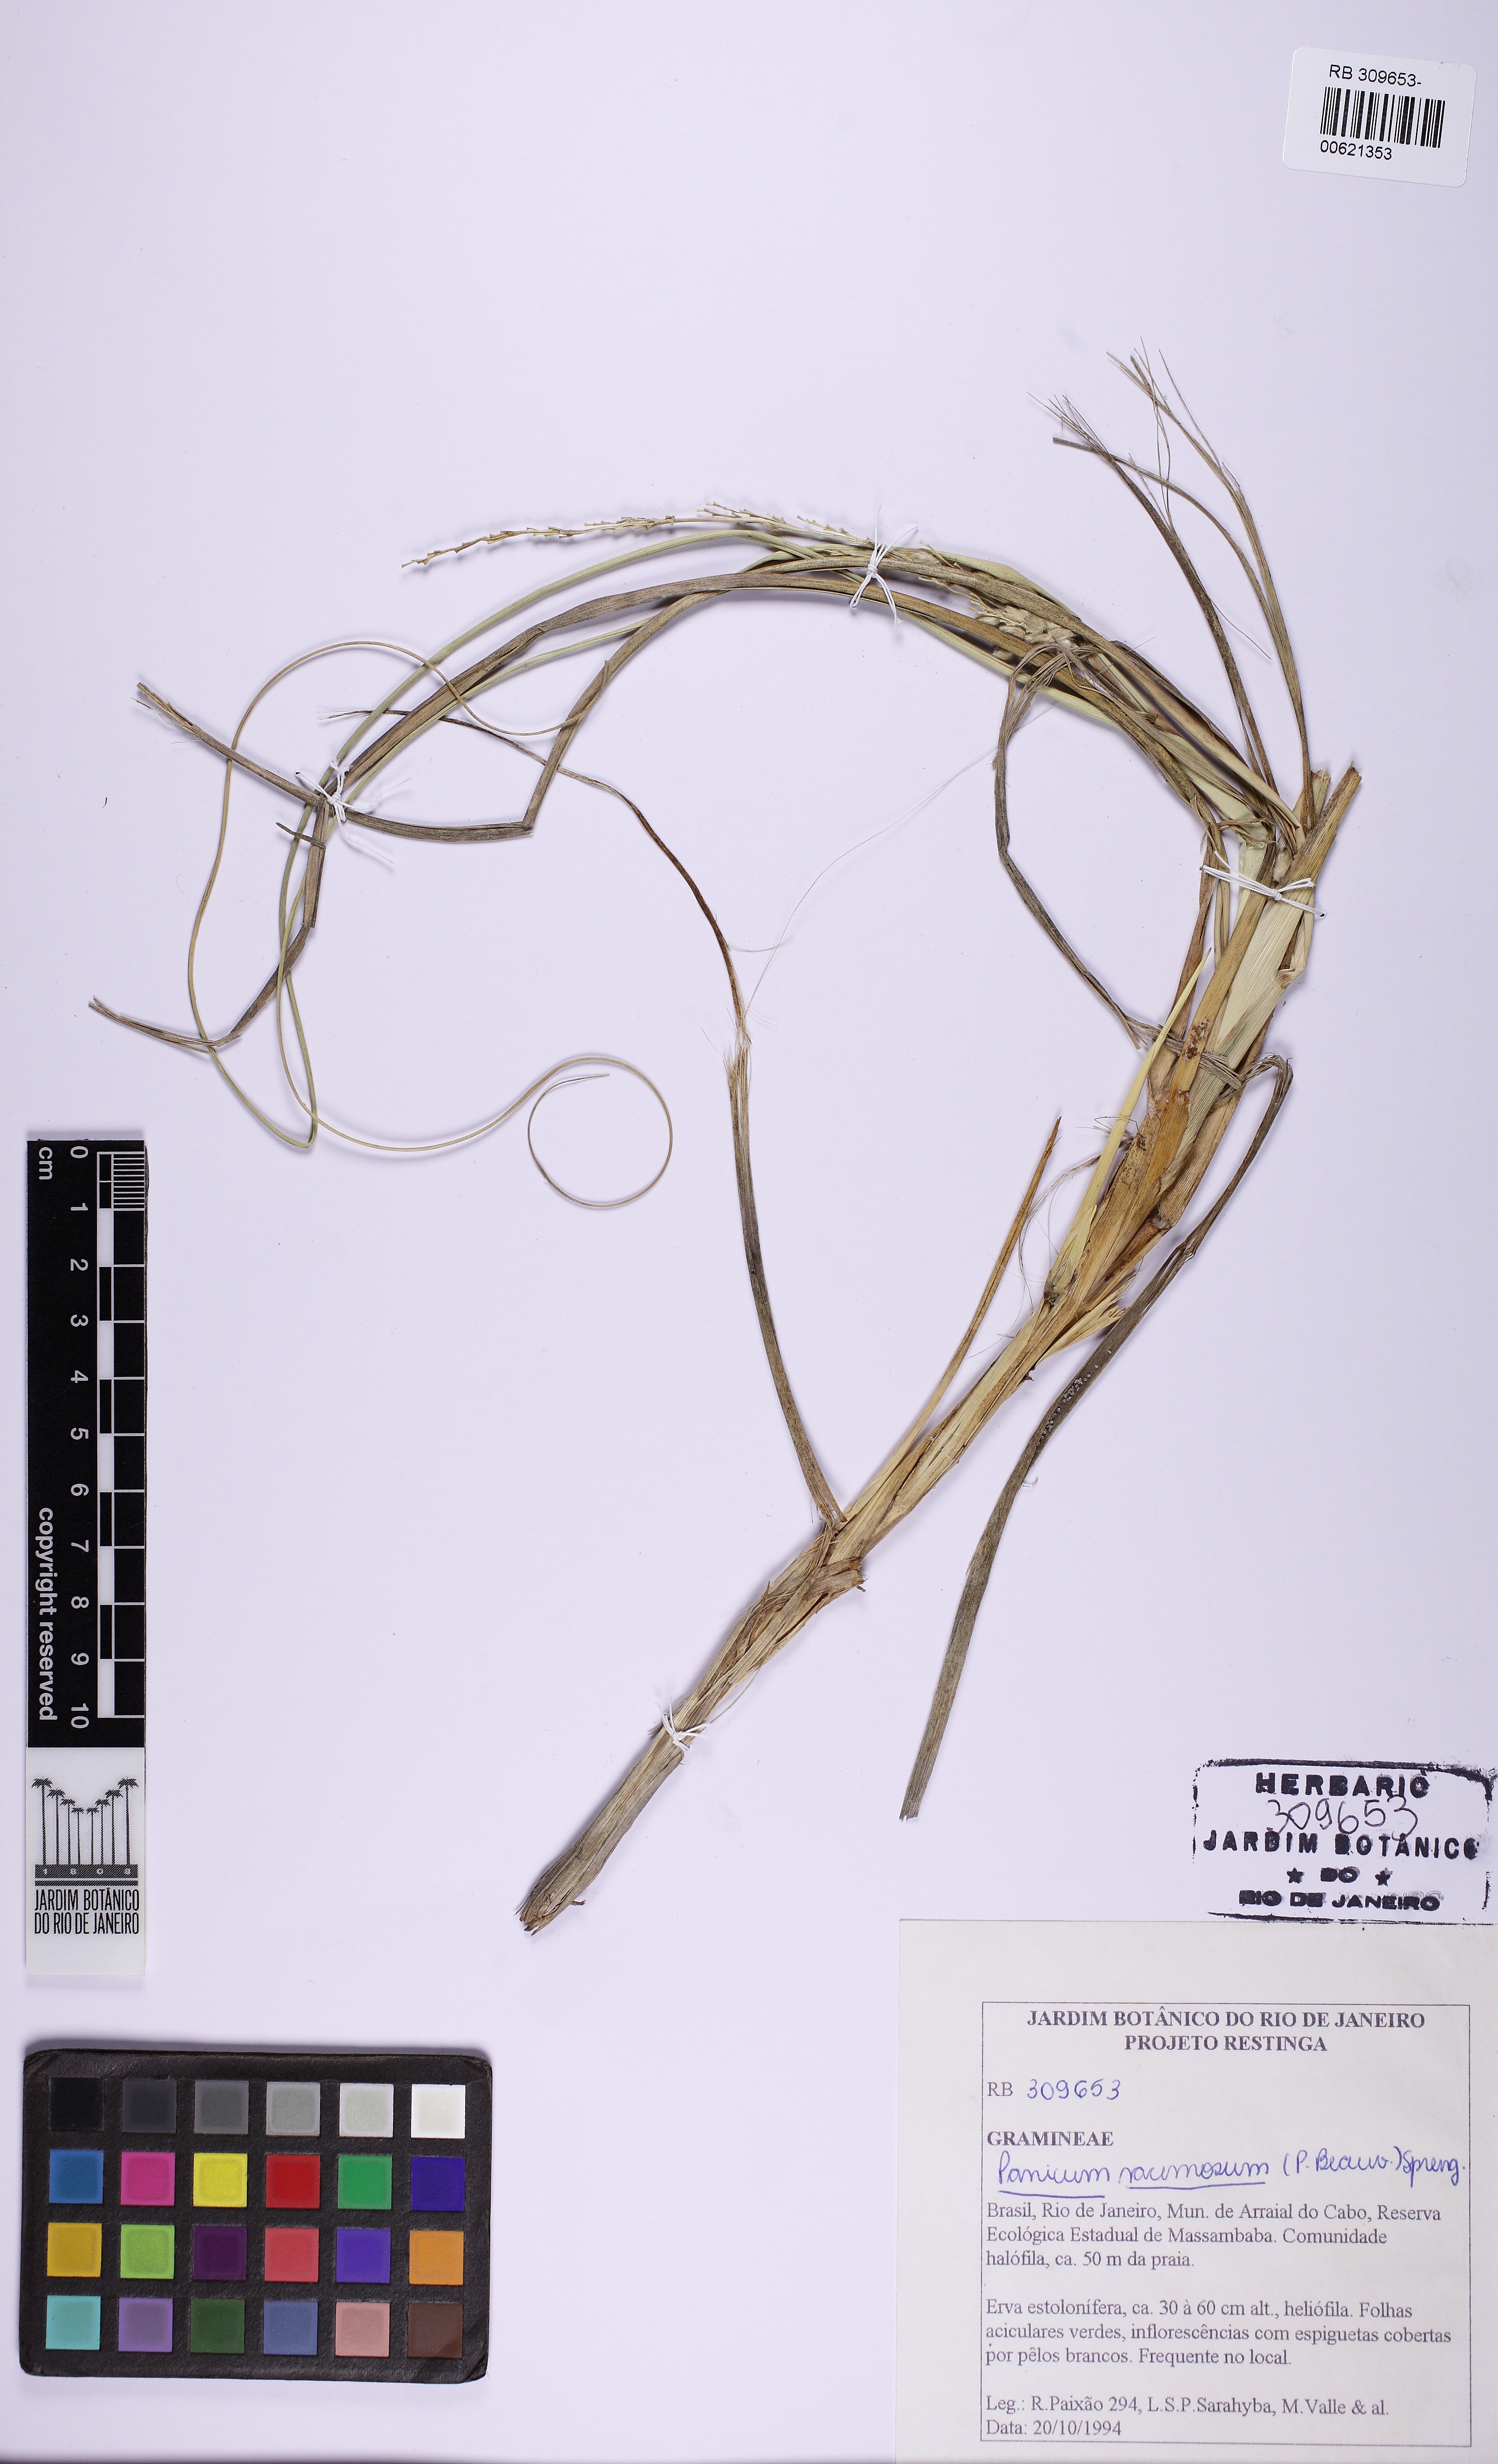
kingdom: Plantae
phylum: Tracheophyta
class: Liliopsida
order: Poales
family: Poaceae
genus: Panicum
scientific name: Panicum racemosum
